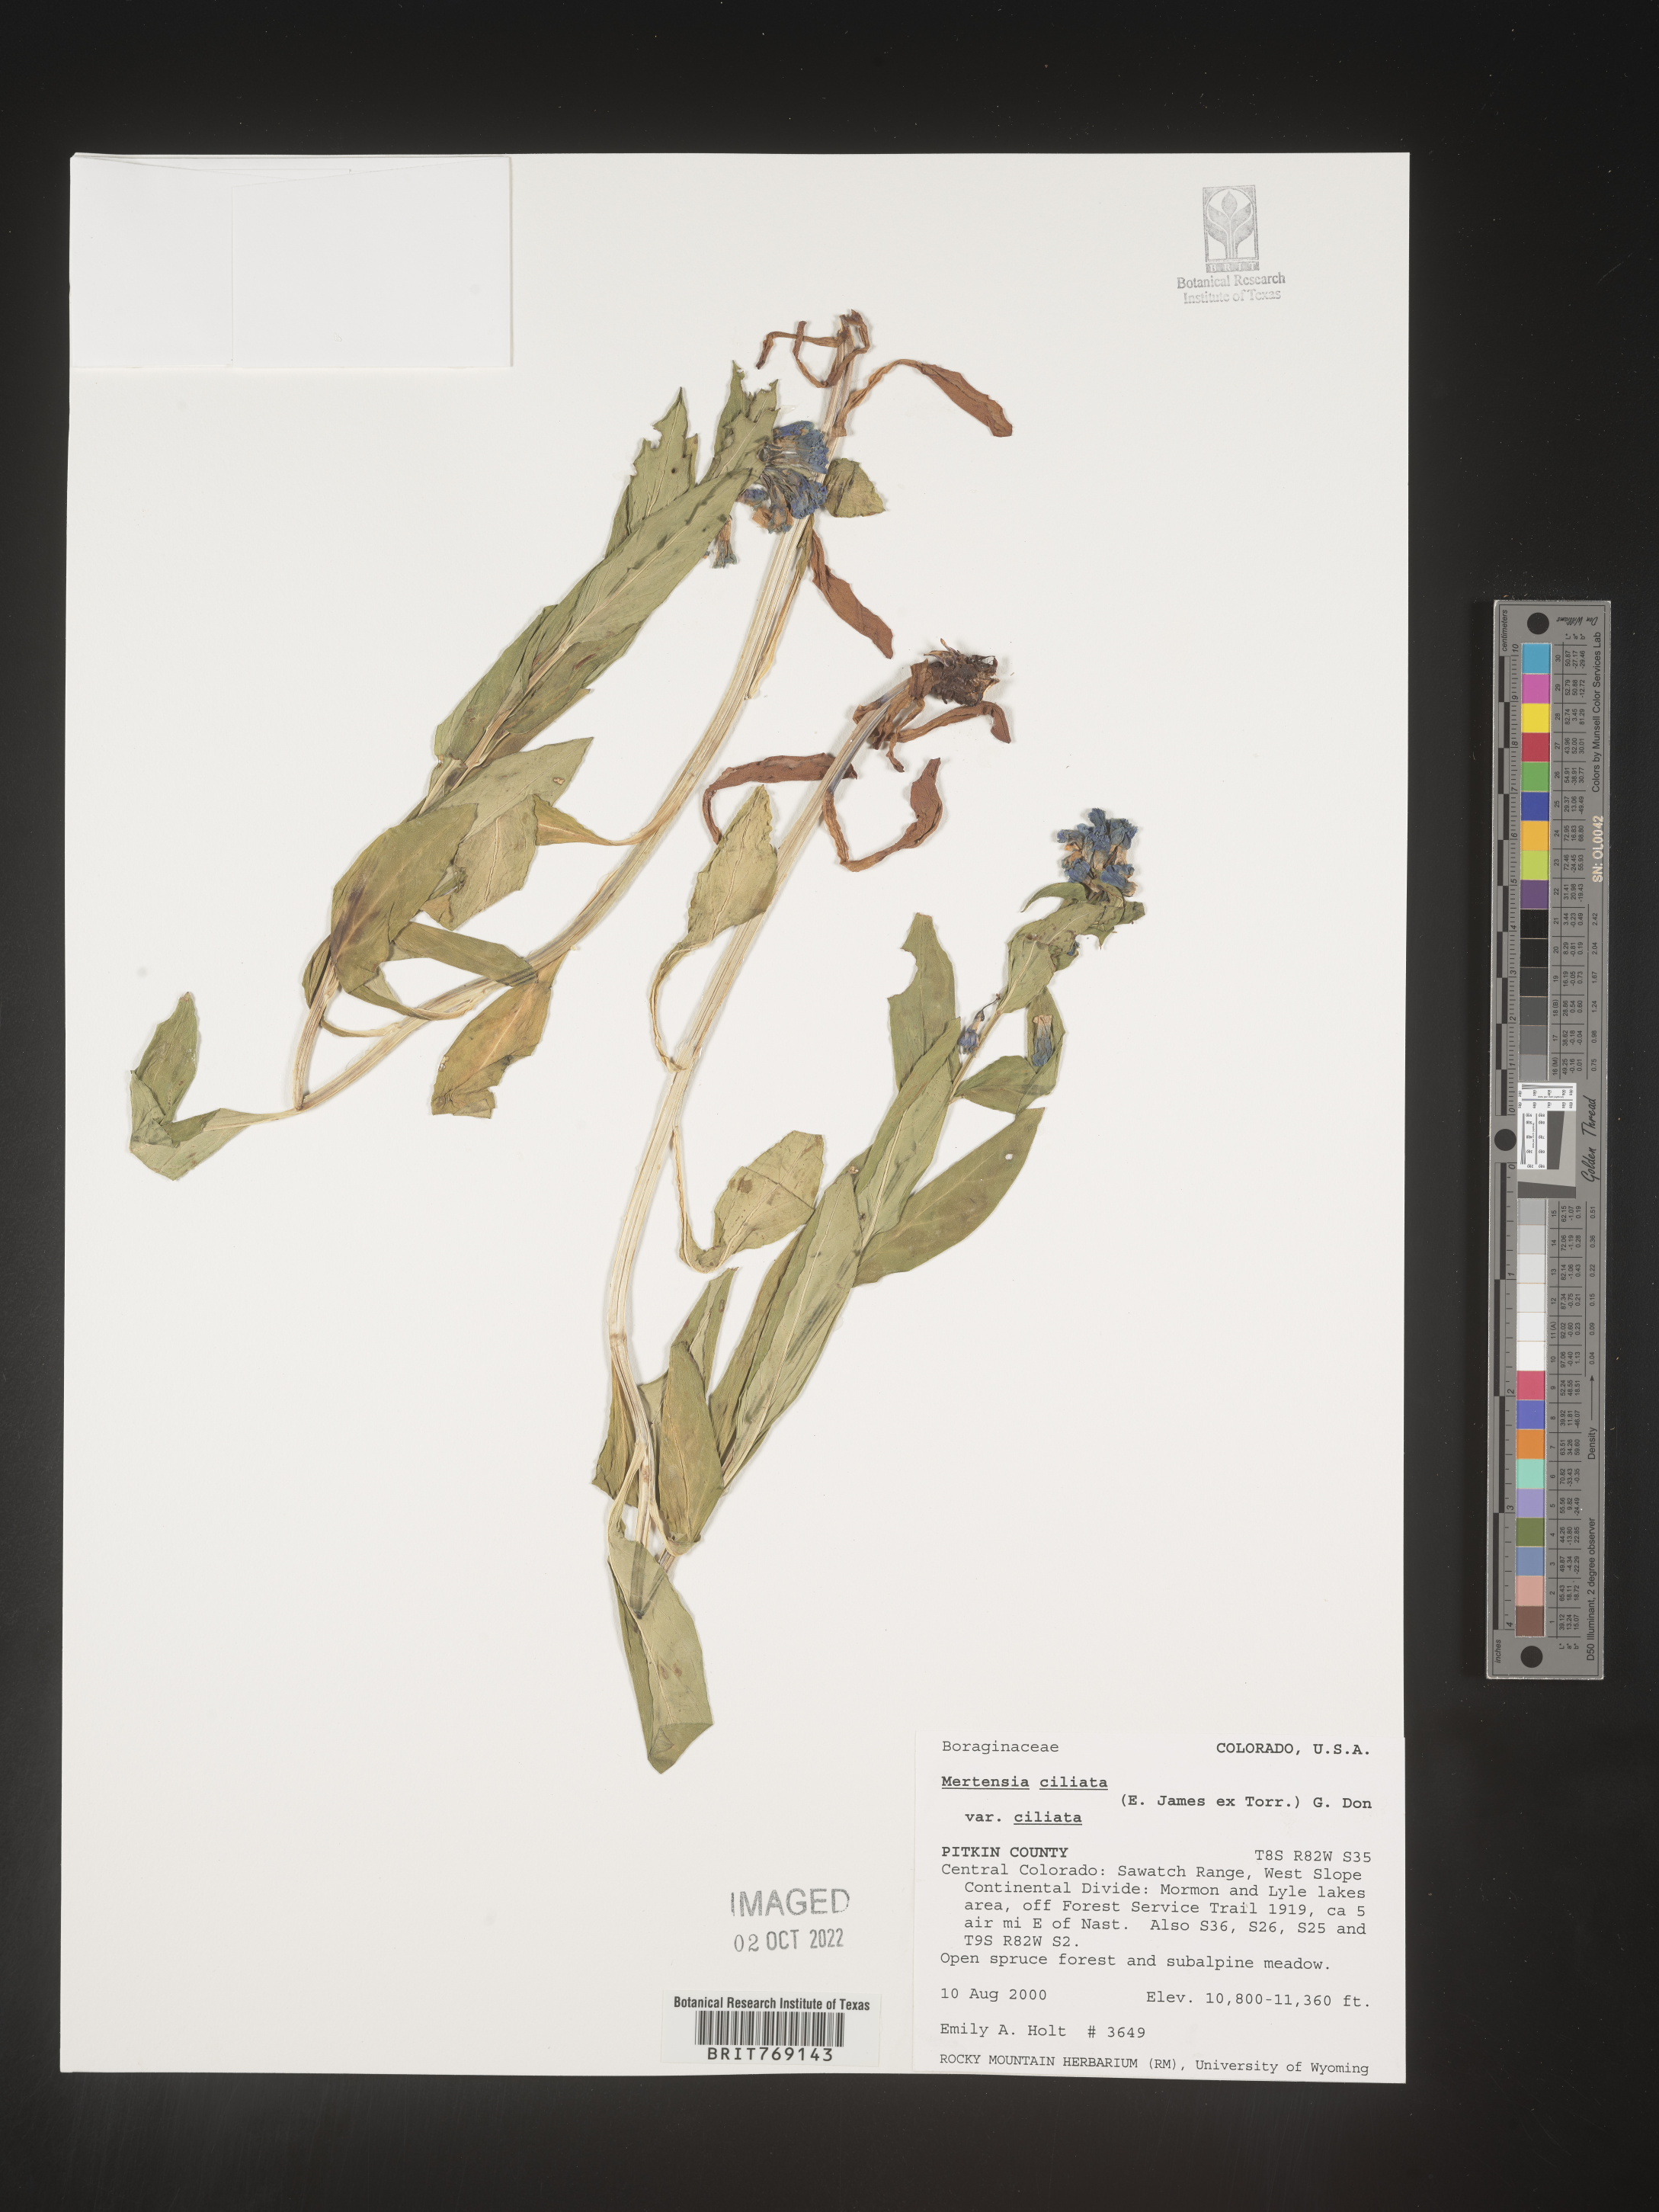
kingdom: Plantae
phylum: Tracheophyta
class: Magnoliopsida
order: Boraginales
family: Boraginaceae
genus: Mertensia
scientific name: Mertensia
